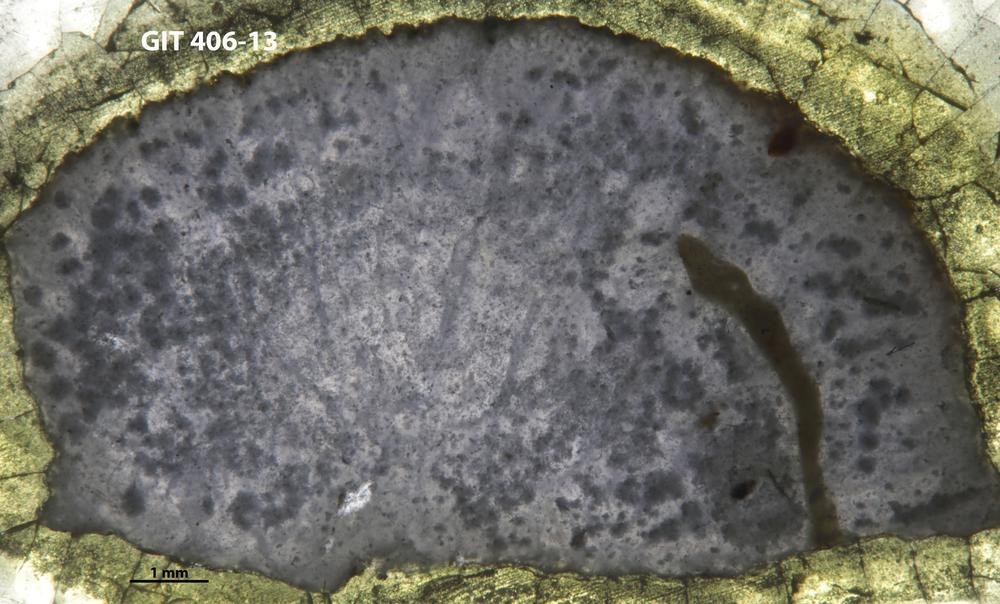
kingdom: Animalia
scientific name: Animalia
